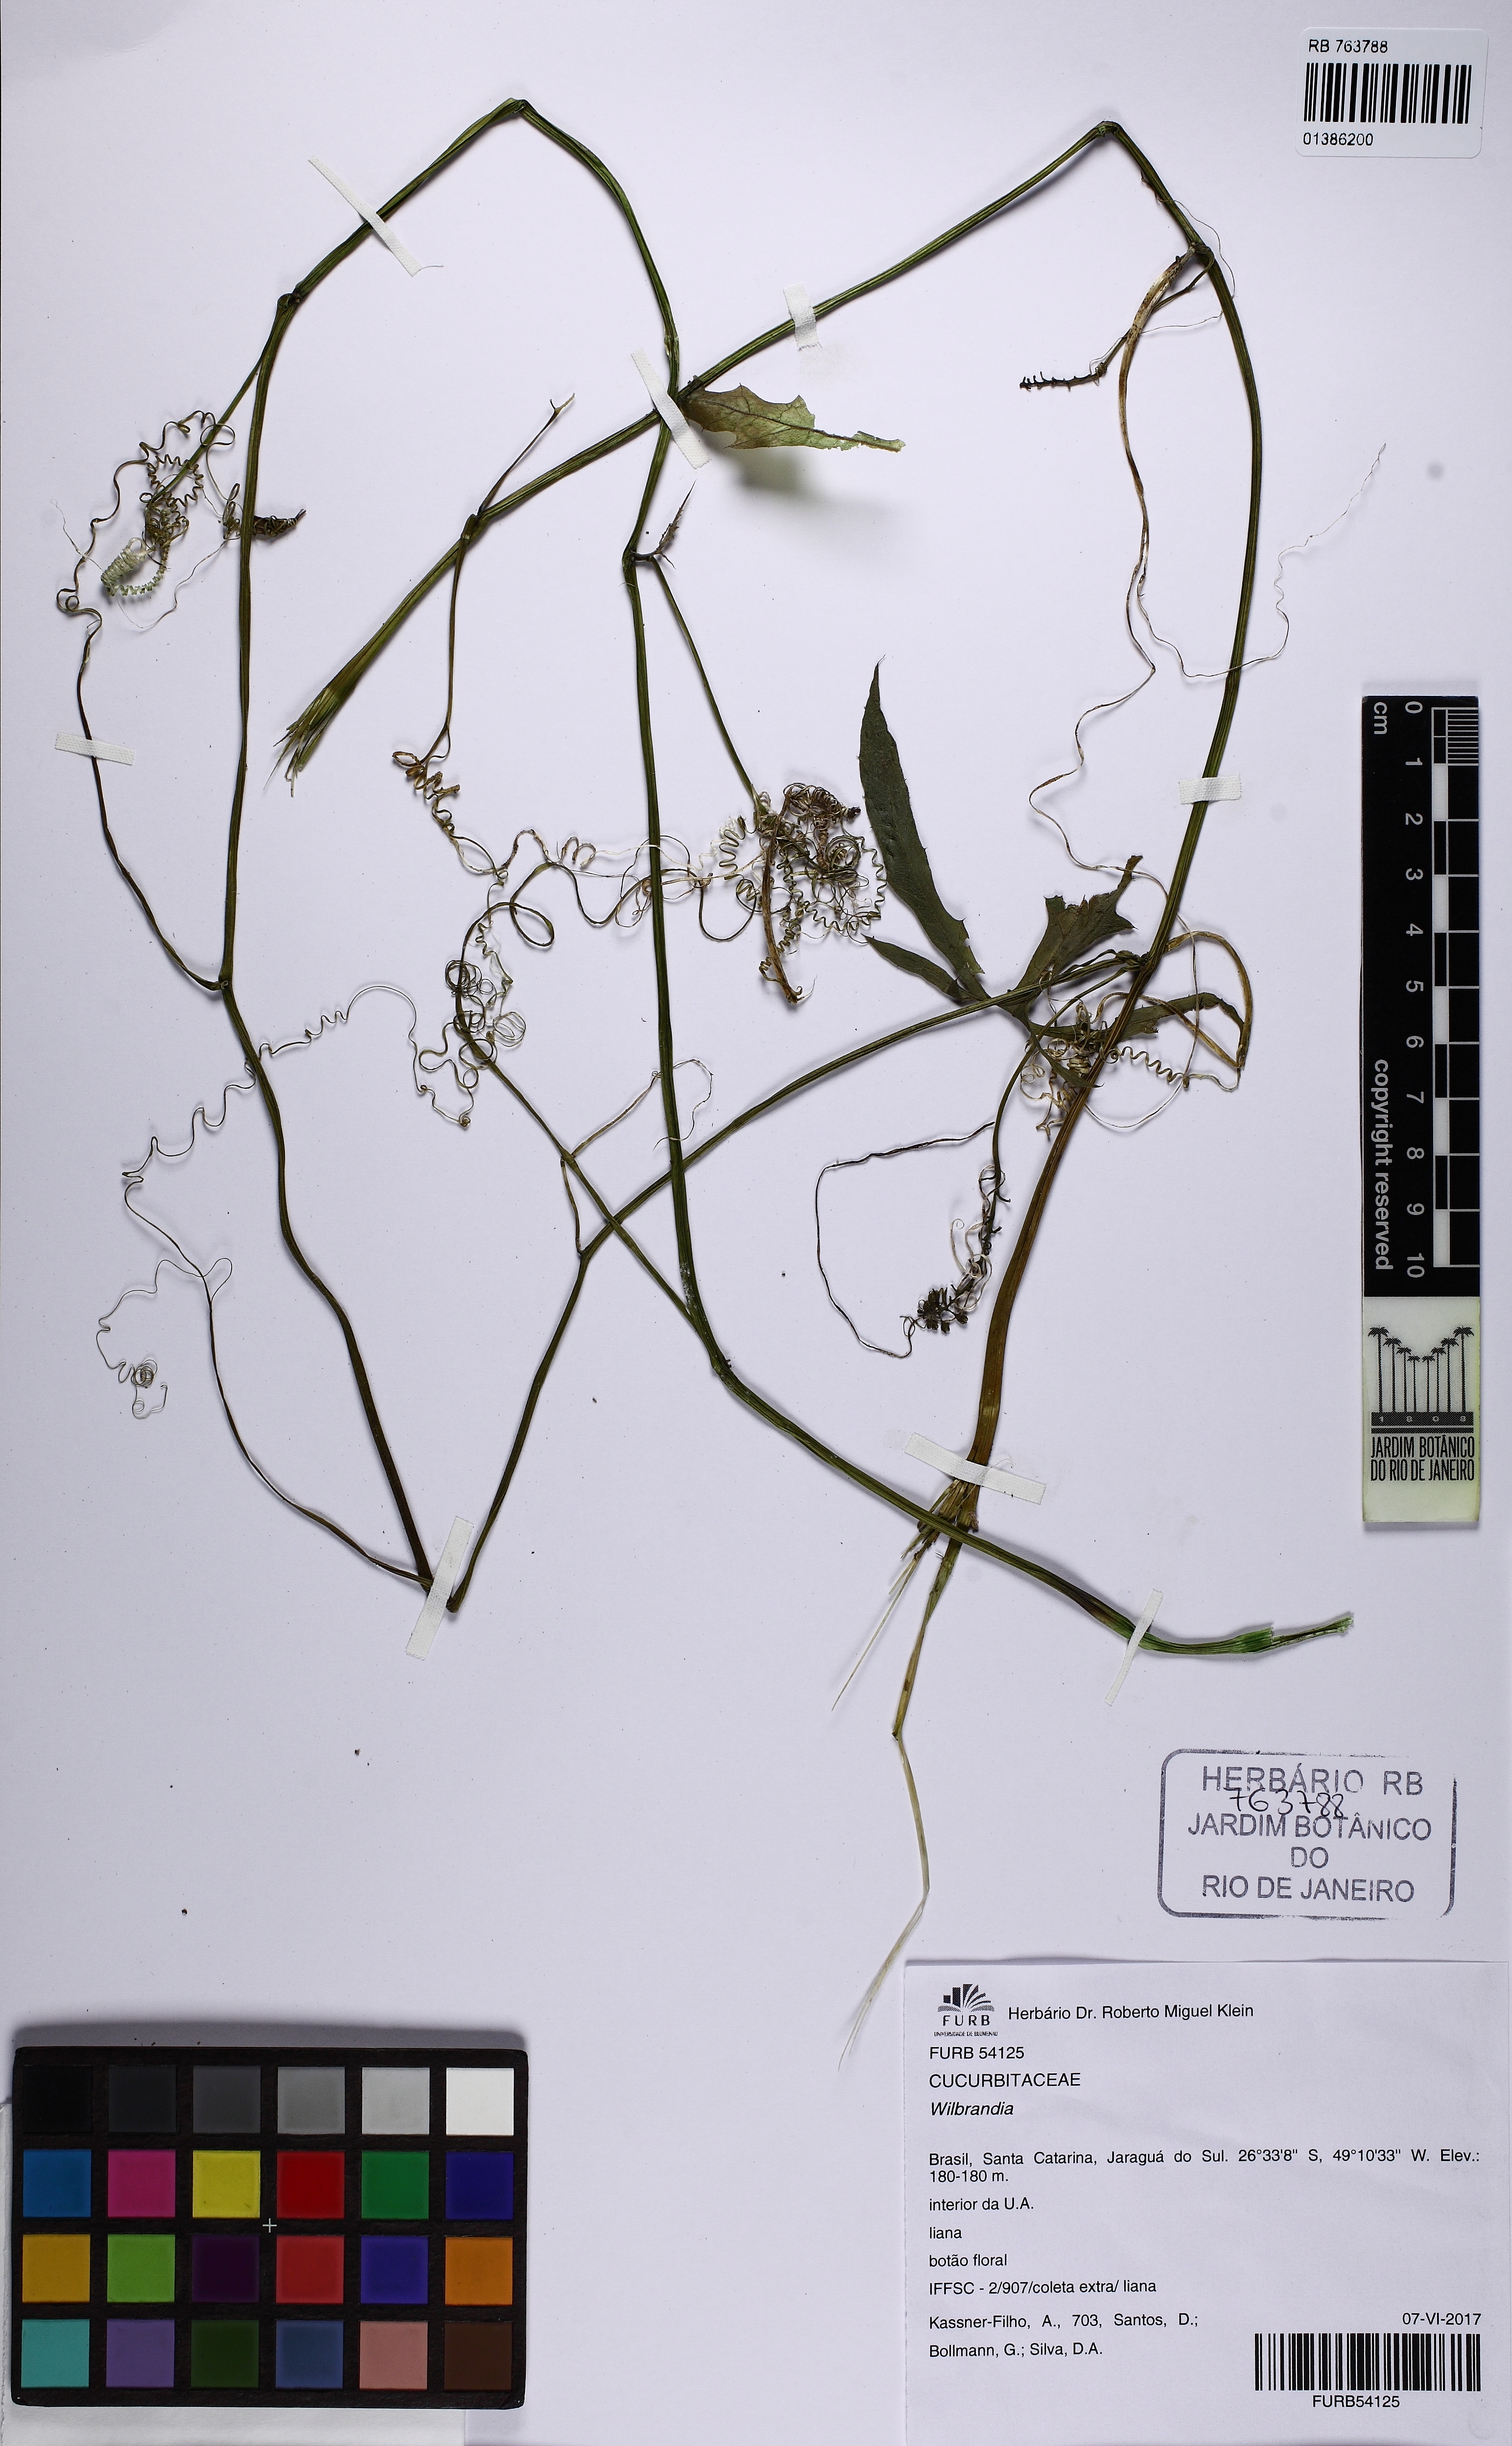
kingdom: Plantae
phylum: Tracheophyta
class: Magnoliopsida
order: Cucurbitales
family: Cucurbitaceae
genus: Wilbrandia
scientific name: Wilbrandia
